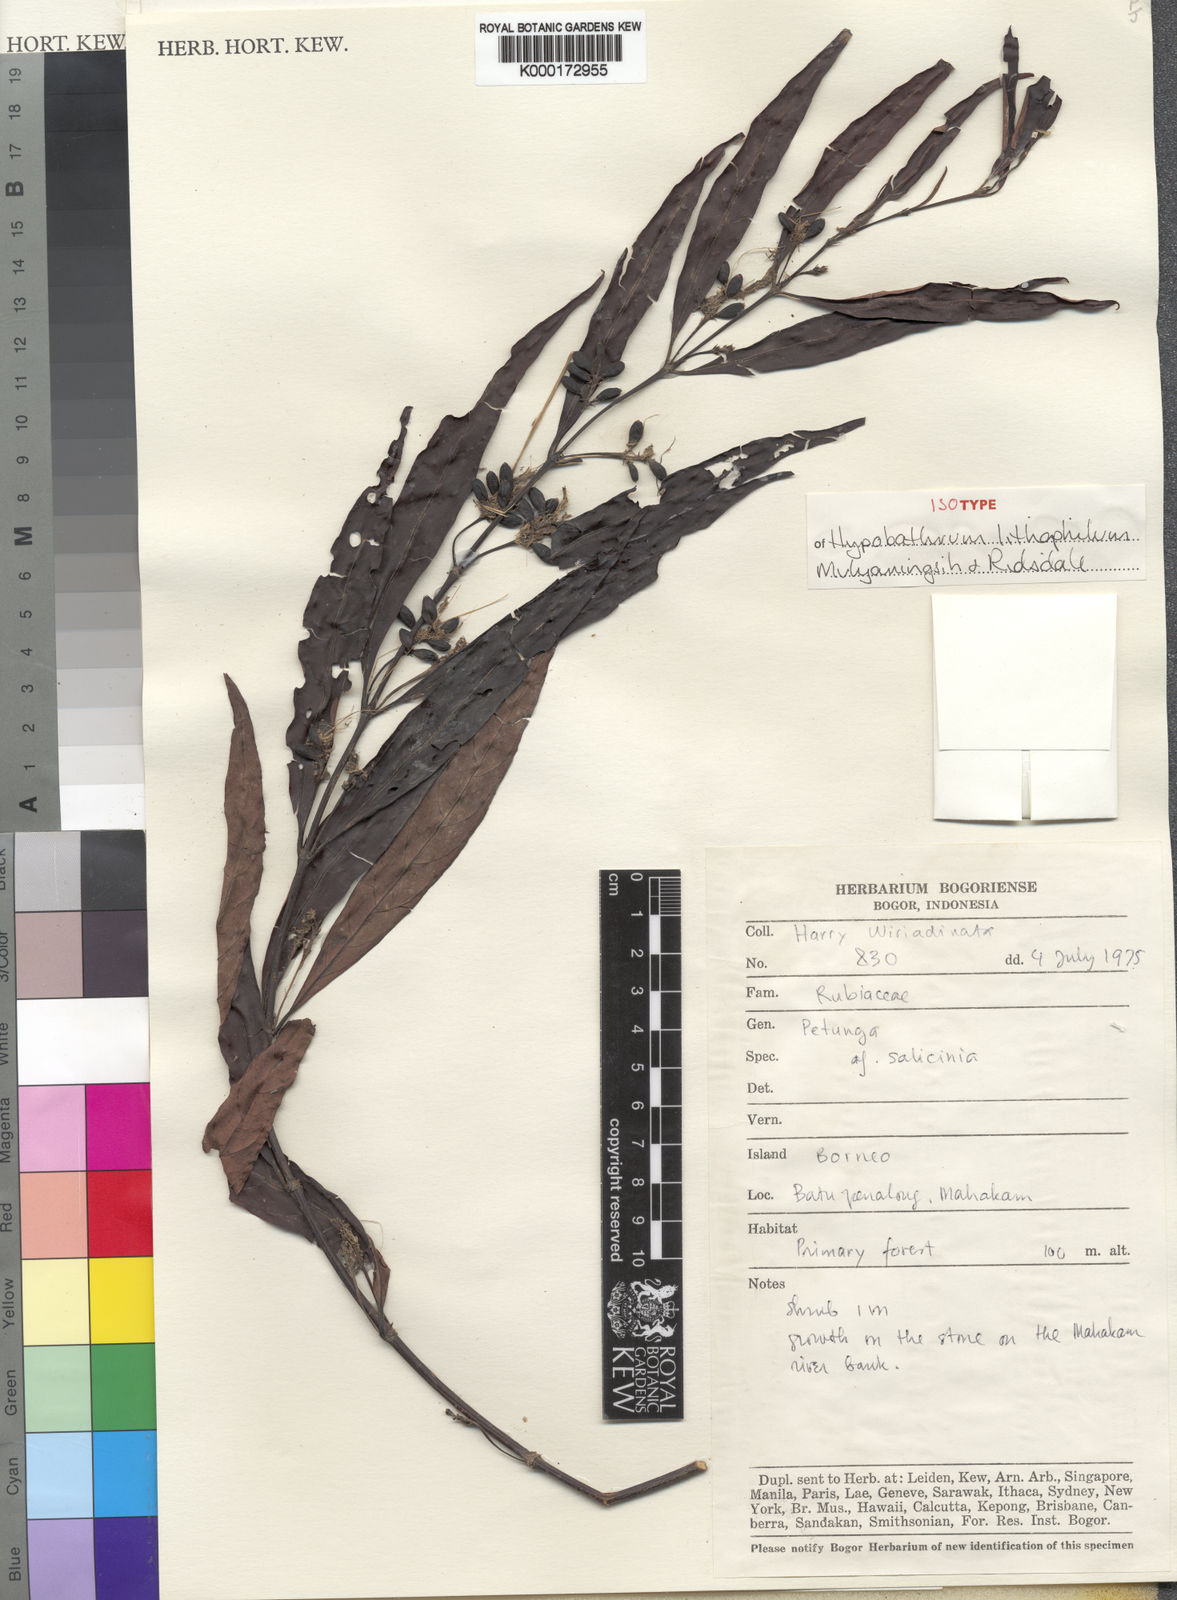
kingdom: Plantae
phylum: Tracheophyta
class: Magnoliopsida
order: Gentianales
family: Rubiaceae
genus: Hypobathrum
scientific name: Hypobathrum lithophilum
